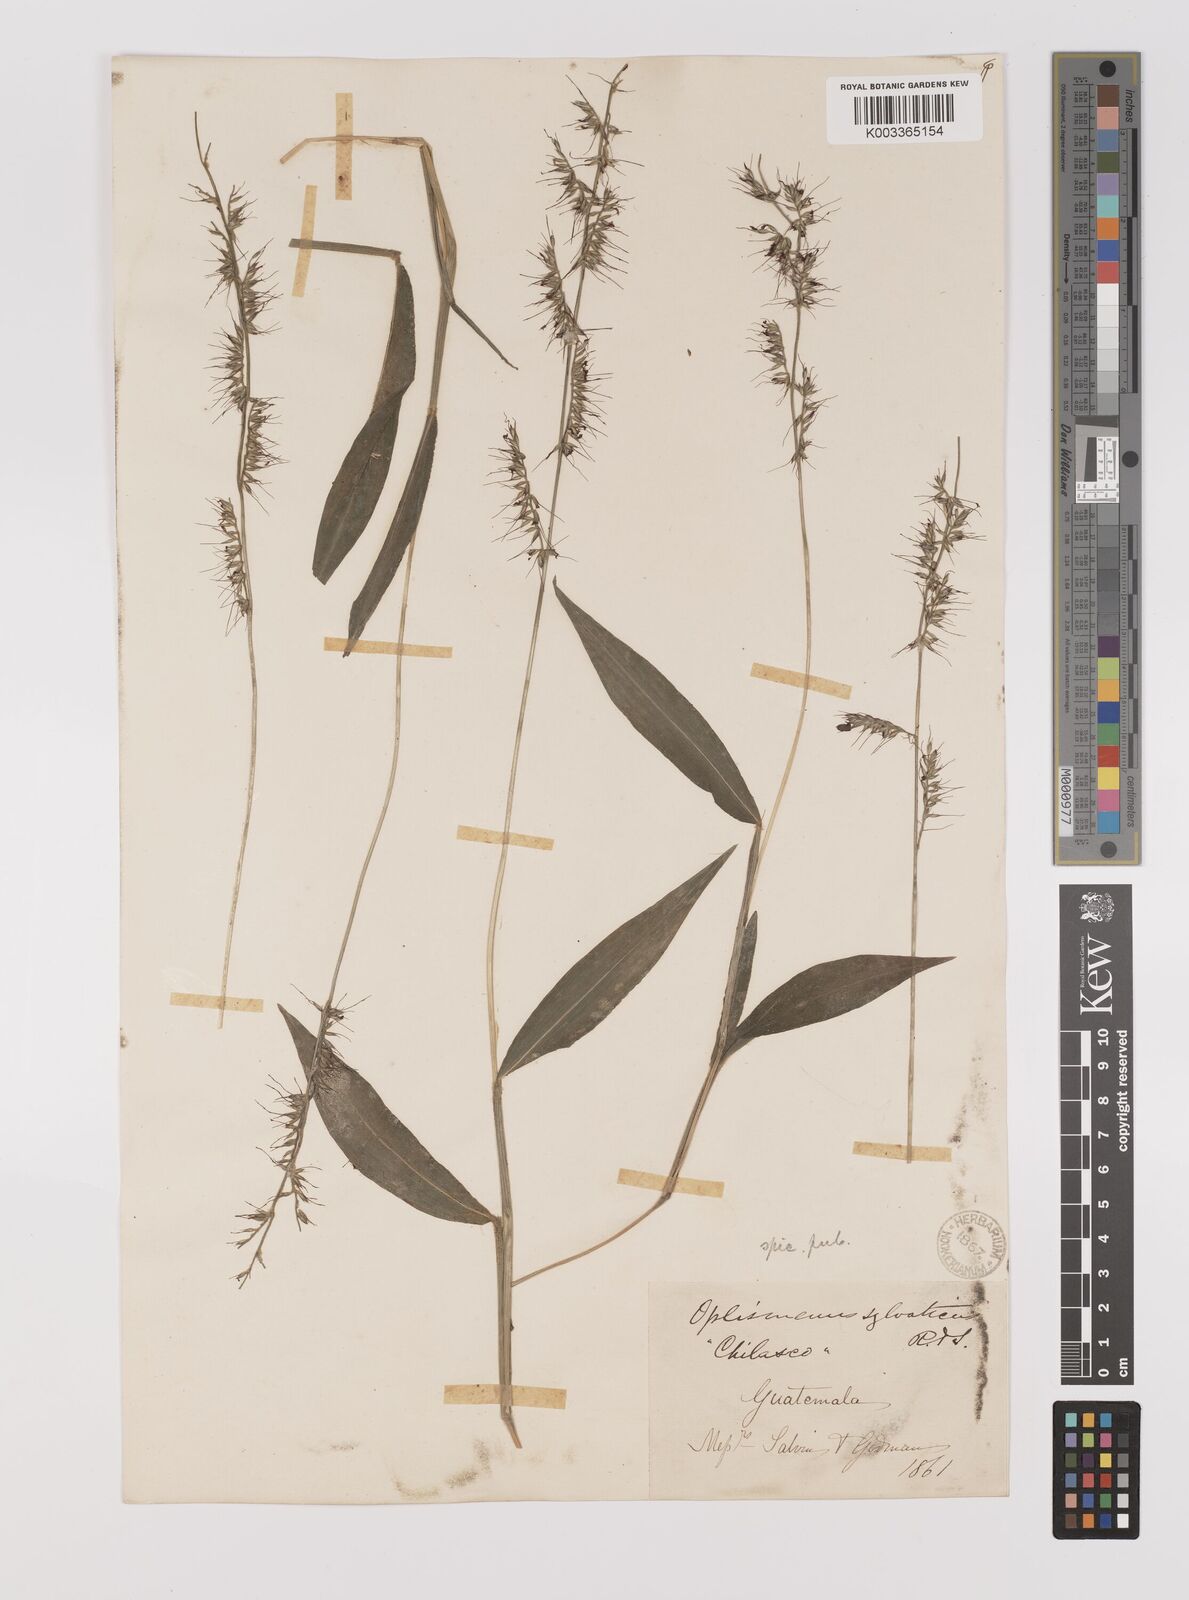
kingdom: Plantae
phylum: Tracheophyta
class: Liliopsida
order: Poales
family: Poaceae
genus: Oplismenus
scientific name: Oplismenus hirtellus
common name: Basketgrass
